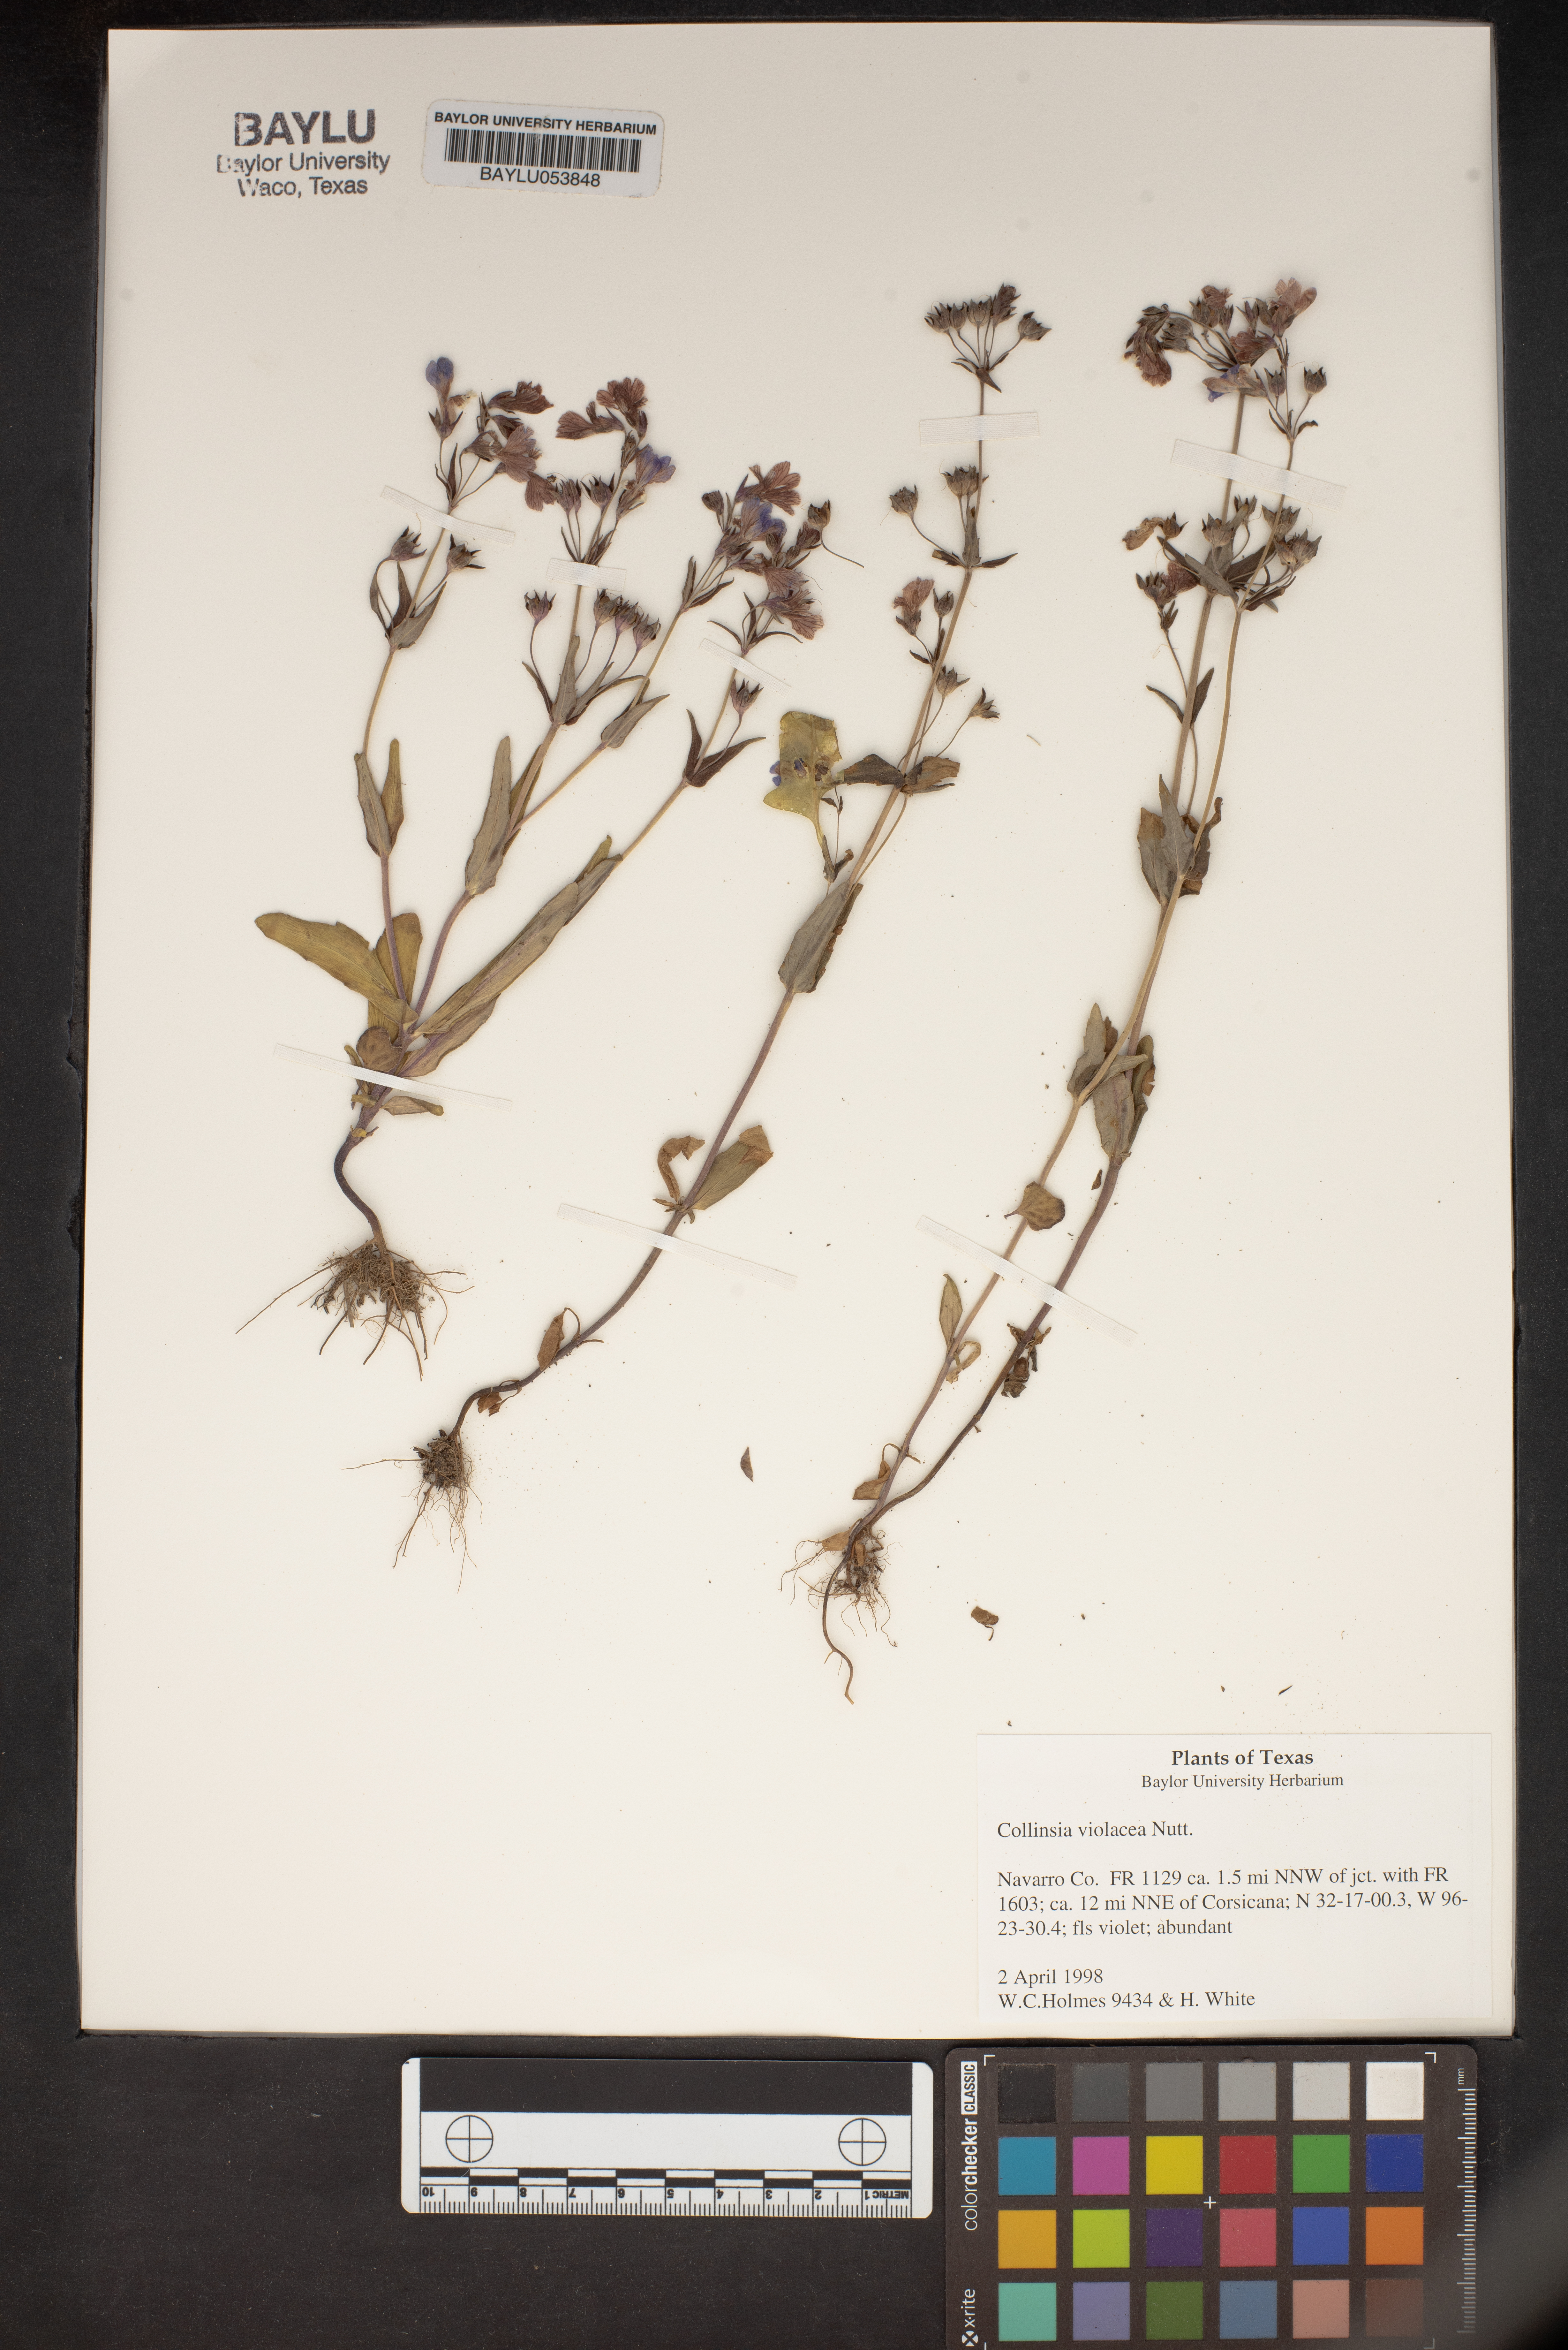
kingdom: Plantae
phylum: Tracheophyta
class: Magnoliopsida
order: Lamiales
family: Plantaginaceae
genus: Collinsia
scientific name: Collinsia violacea
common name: Violet collinsia
